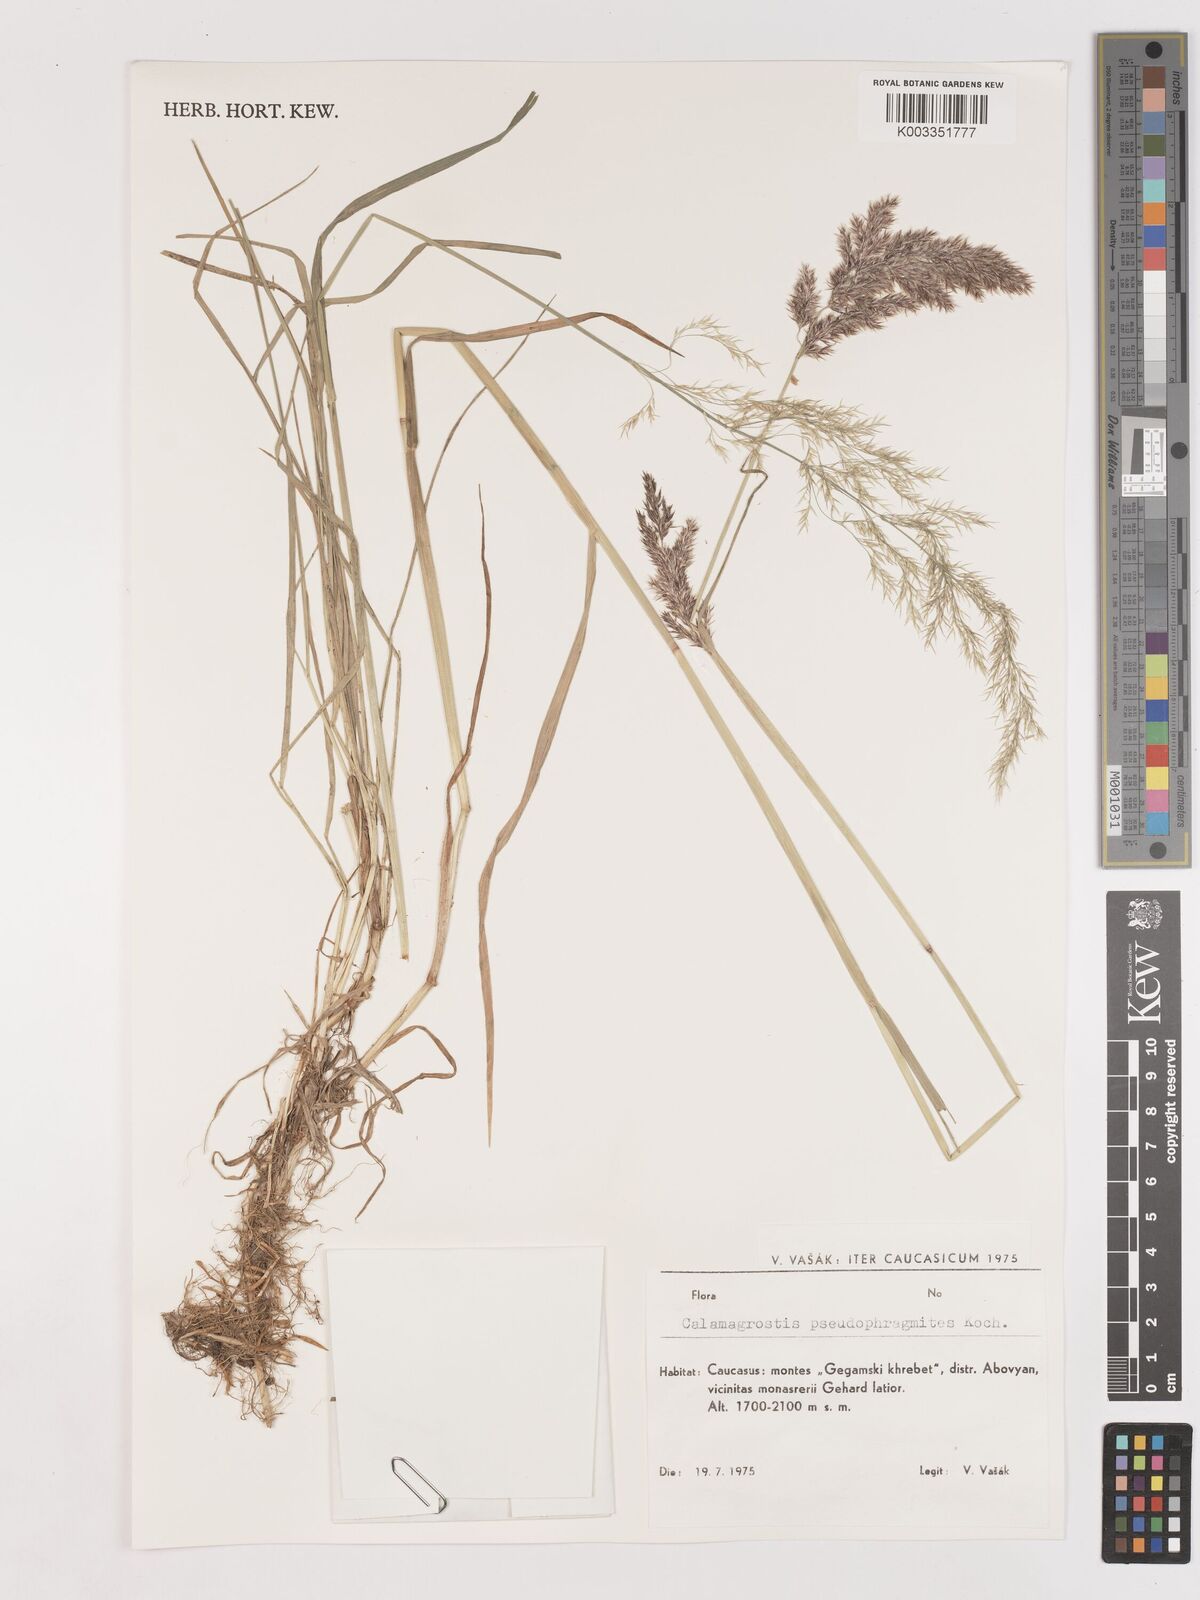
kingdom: Plantae
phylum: Tracheophyta
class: Liliopsida
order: Poales
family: Poaceae
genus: Calamagrostis
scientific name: Calamagrostis pseudophragmites
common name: Coastal small-reed
